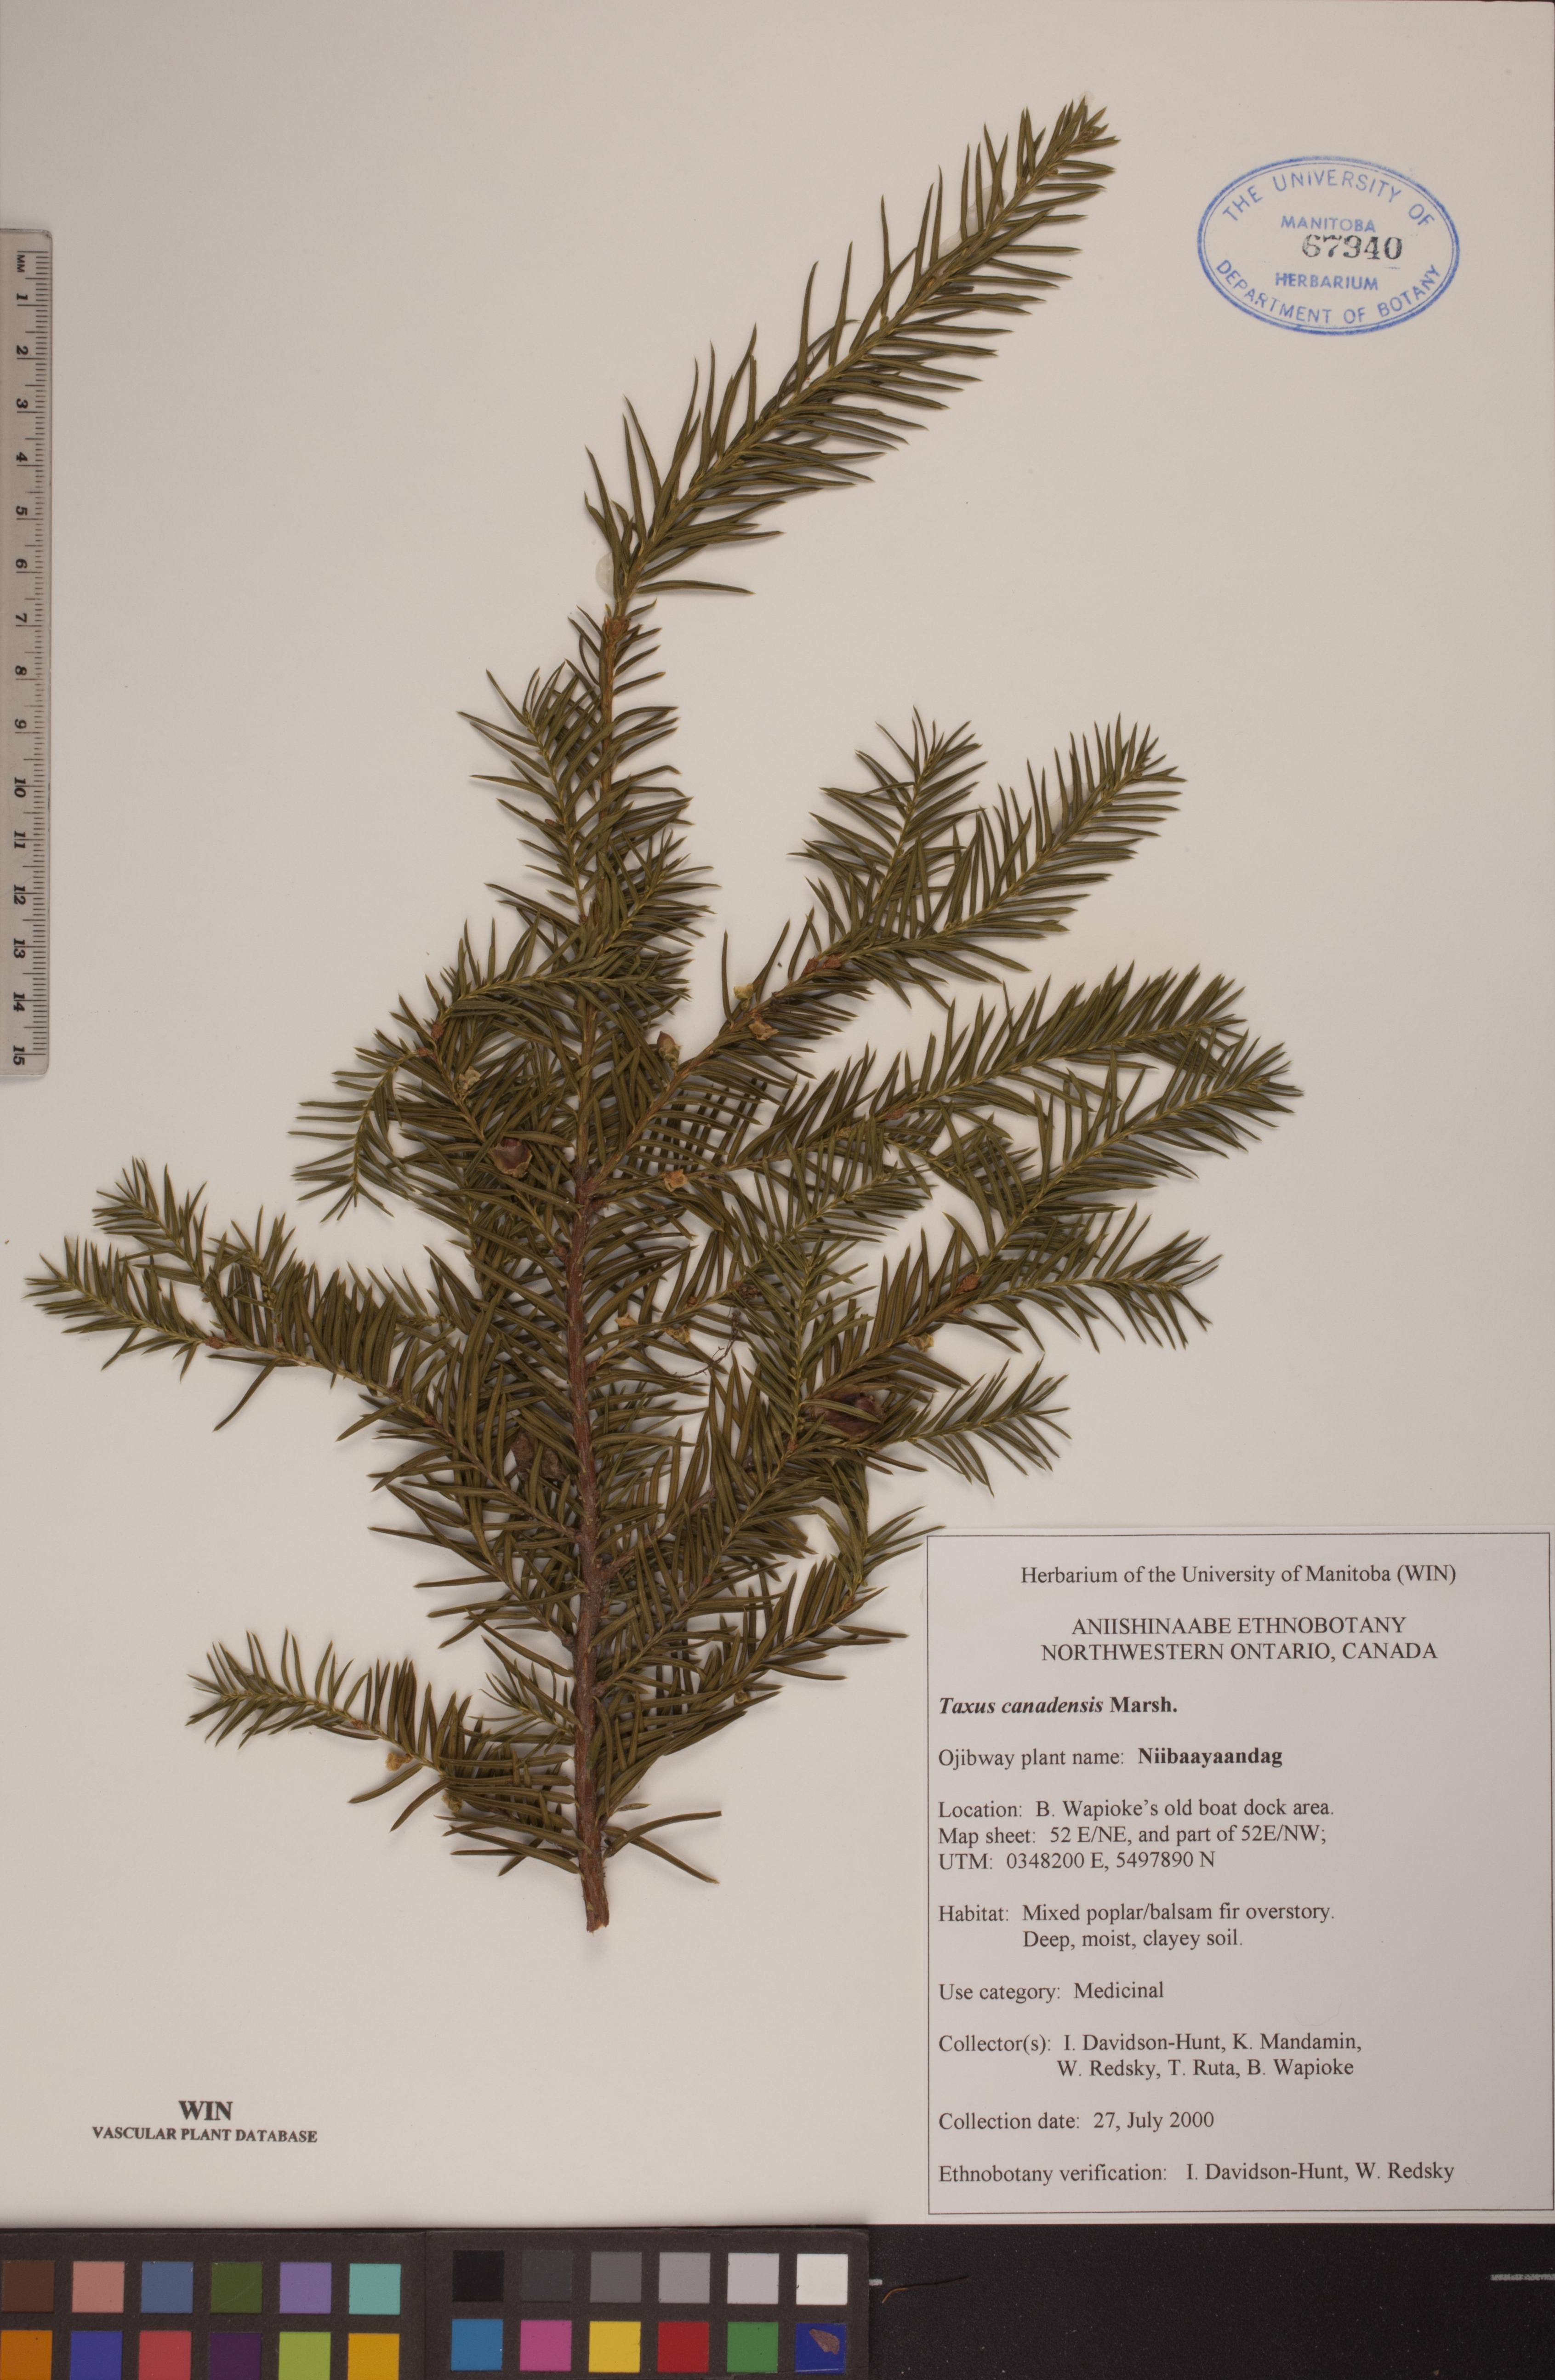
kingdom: Plantae
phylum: Tracheophyta
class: Pinopsida
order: Pinales
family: Taxaceae
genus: Taxus
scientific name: Taxus canadensis
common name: American yew
